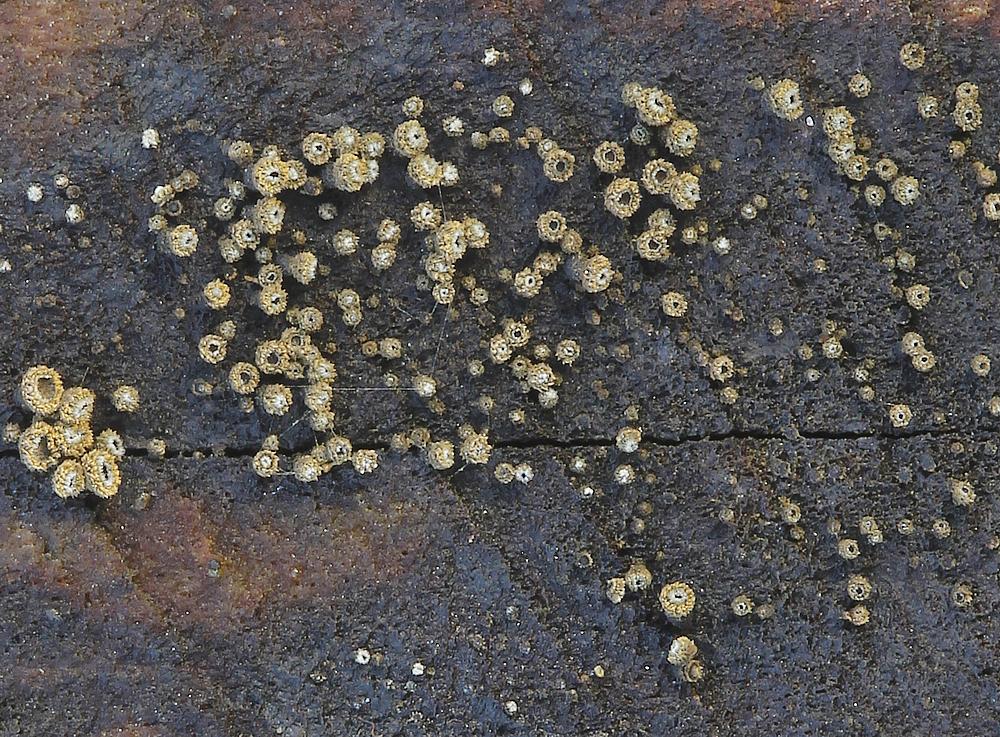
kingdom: Fungi
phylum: Ascomycota
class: Leotiomycetes
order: Helotiales
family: Lachnaceae
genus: Neodasyscypha
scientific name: Neodasyscypha cerina
